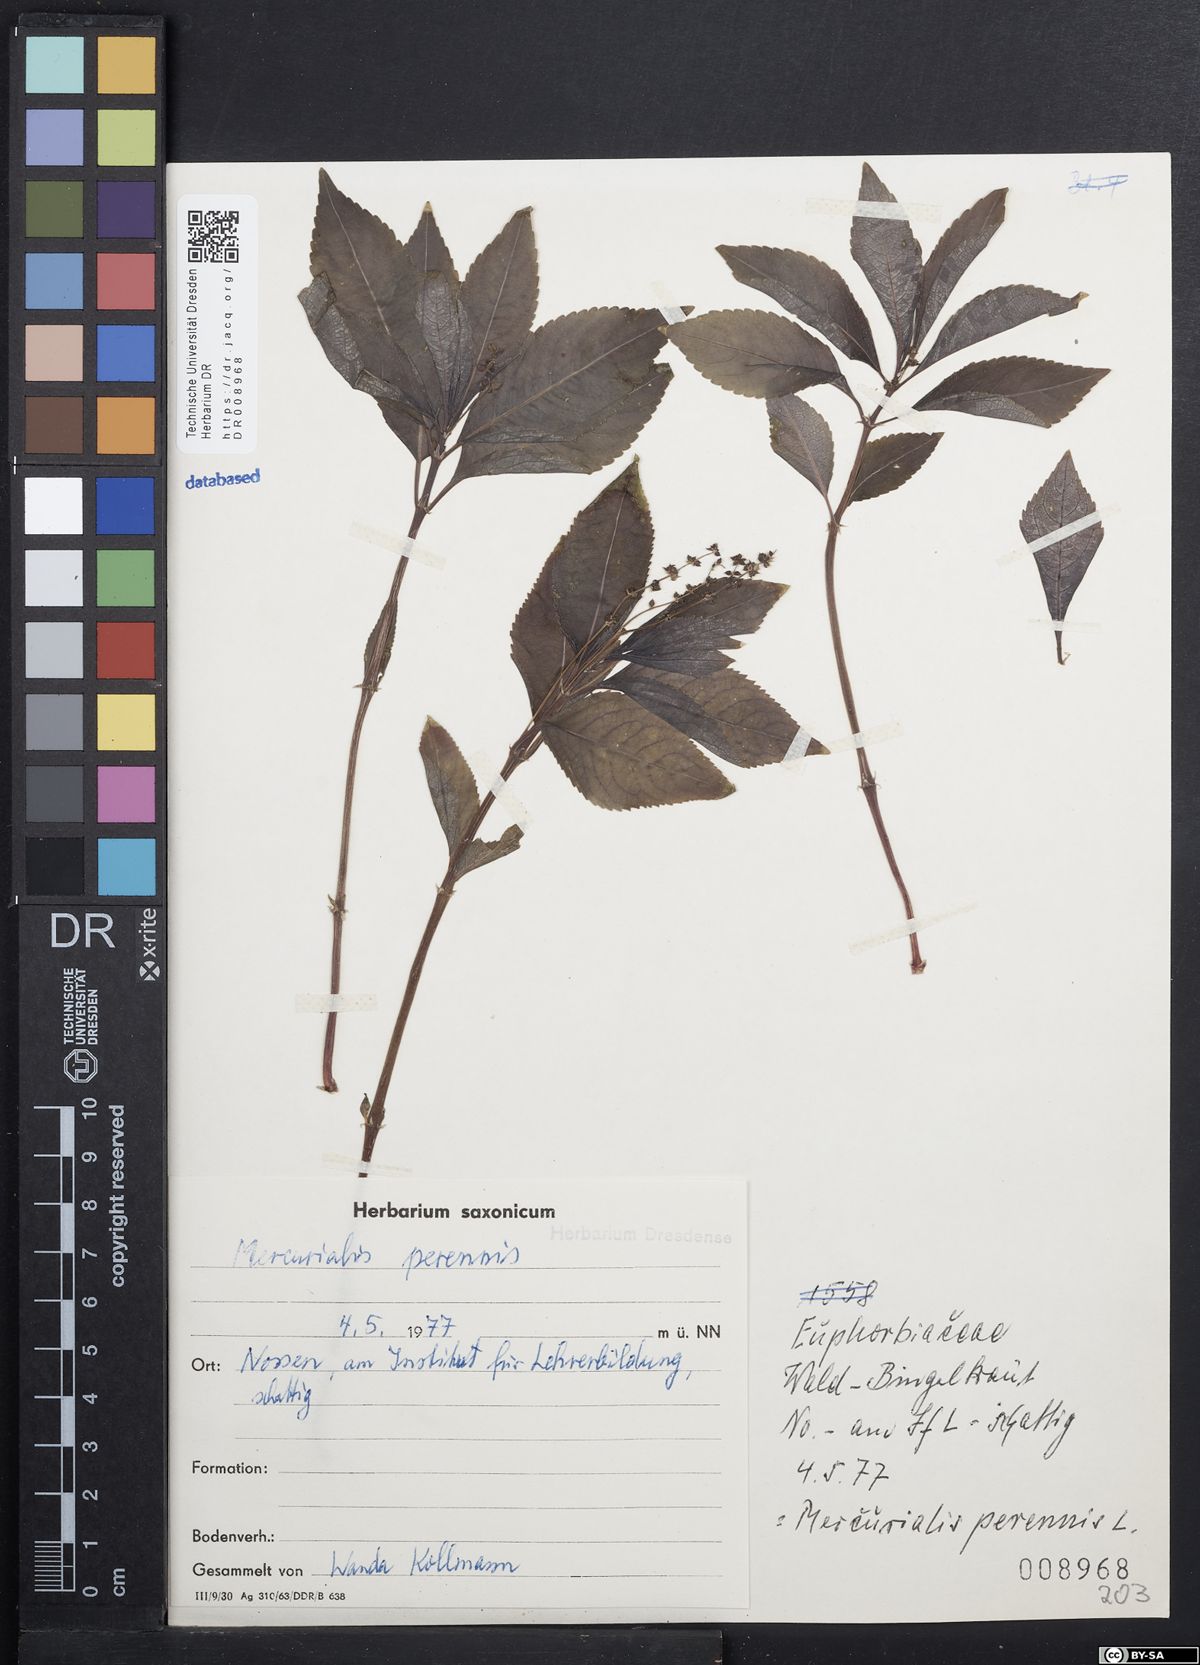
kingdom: Plantae
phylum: Tracheophyta
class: Magnoliopsida
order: Malpighiales
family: Euphorbiaceae
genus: Mercurialis
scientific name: Mercurialis perennis
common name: Dog mercury
